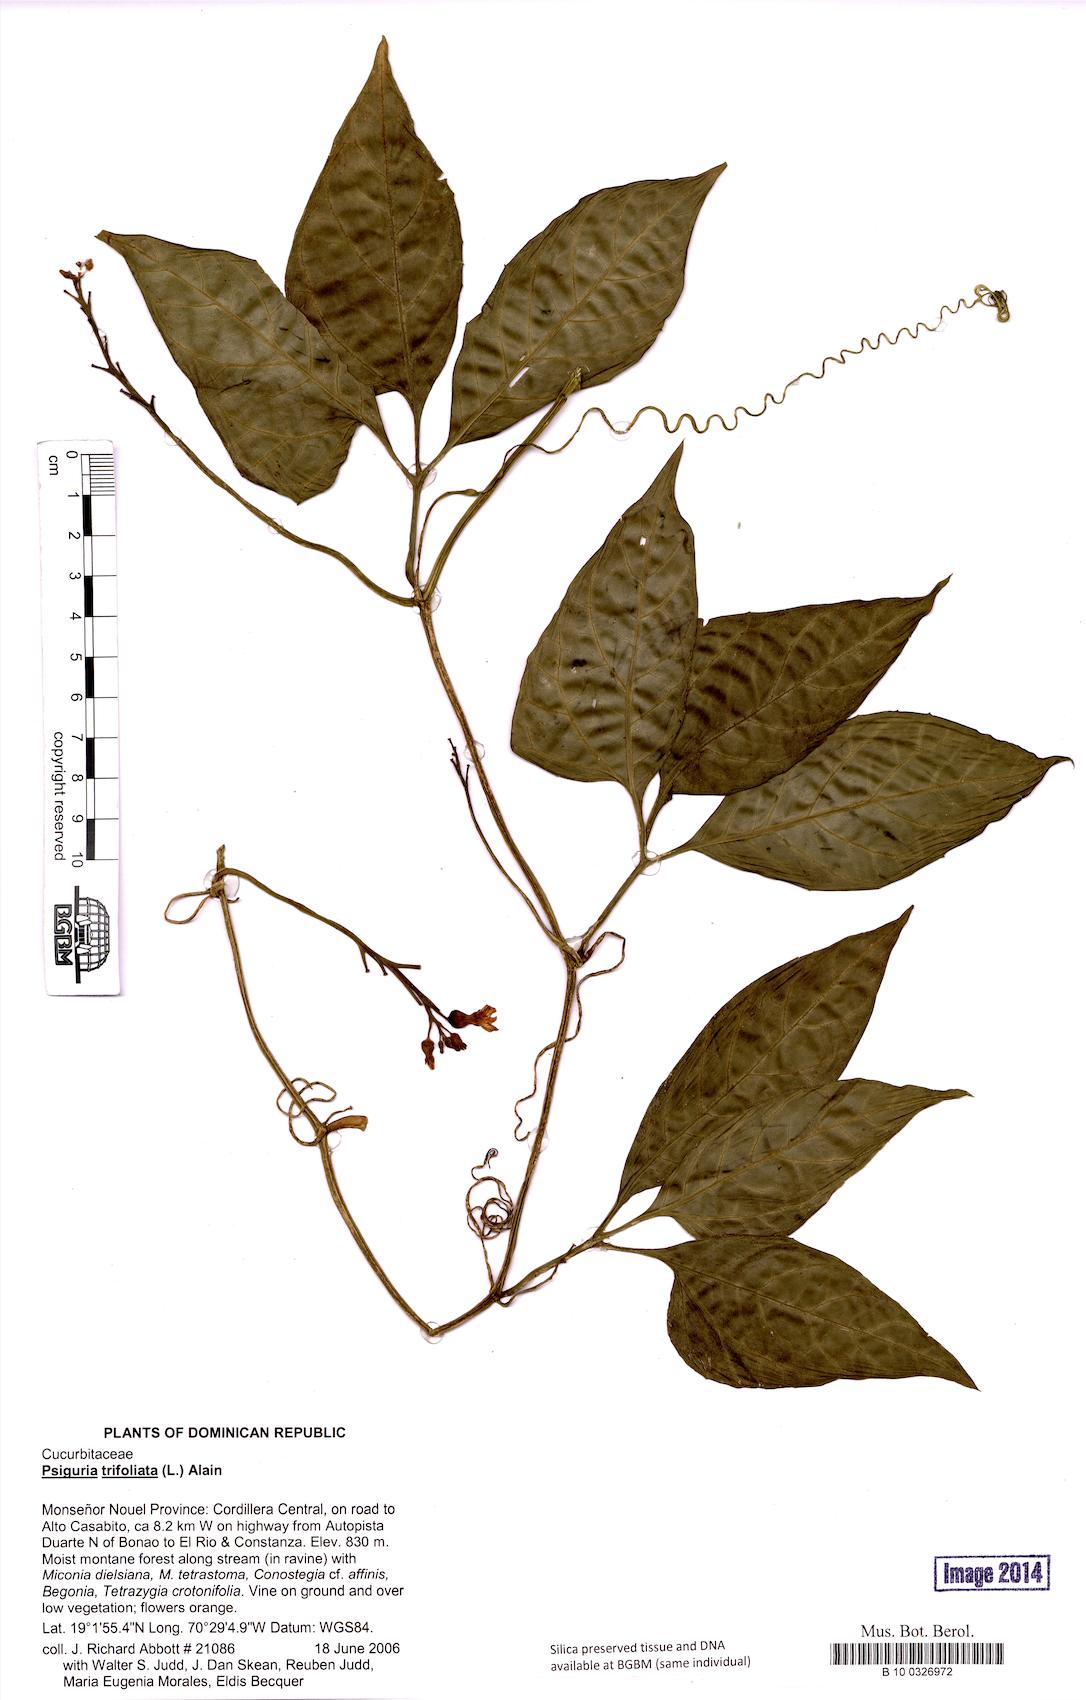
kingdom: Plantae
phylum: Tracheophyta
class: Magnoliopsida
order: Cucurbitales
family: Cucurbitaceae
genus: Psiguria
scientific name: Psiguria pedata
